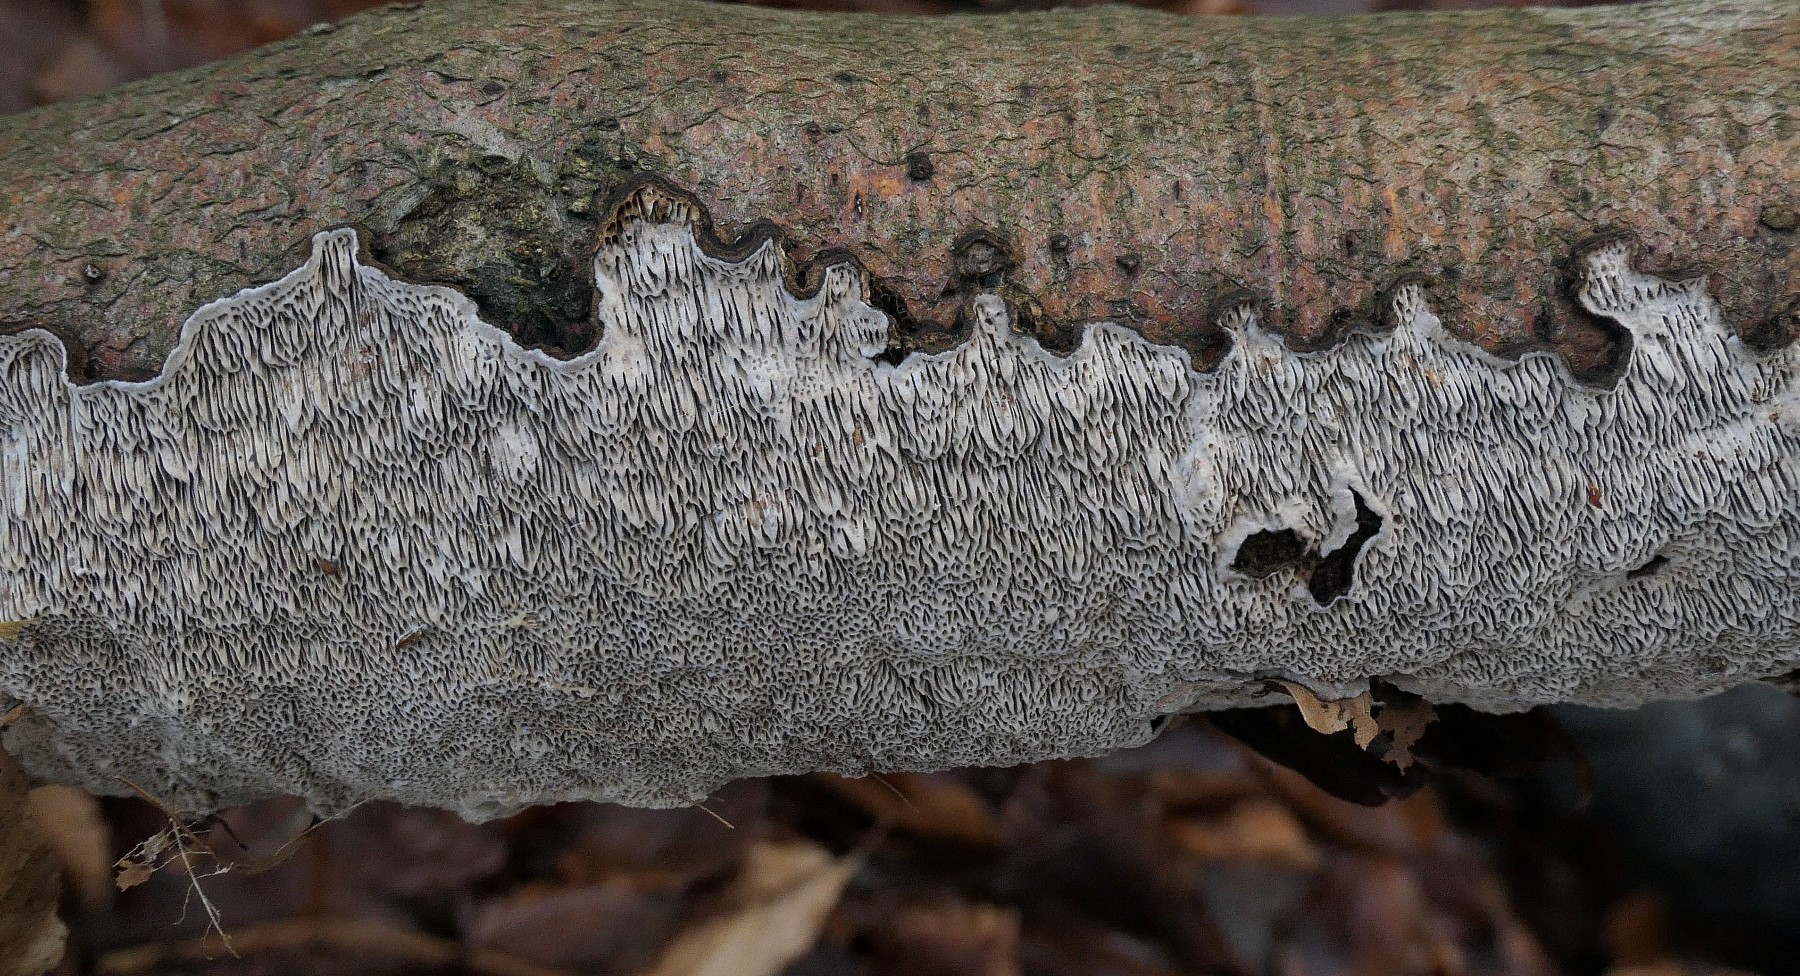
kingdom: Fungi
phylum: Basidiomycota
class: Agaricomycetes
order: Polyporales
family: Polyporaceae
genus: Podofomes
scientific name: Podofomes mollis
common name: blød begporesvamp
